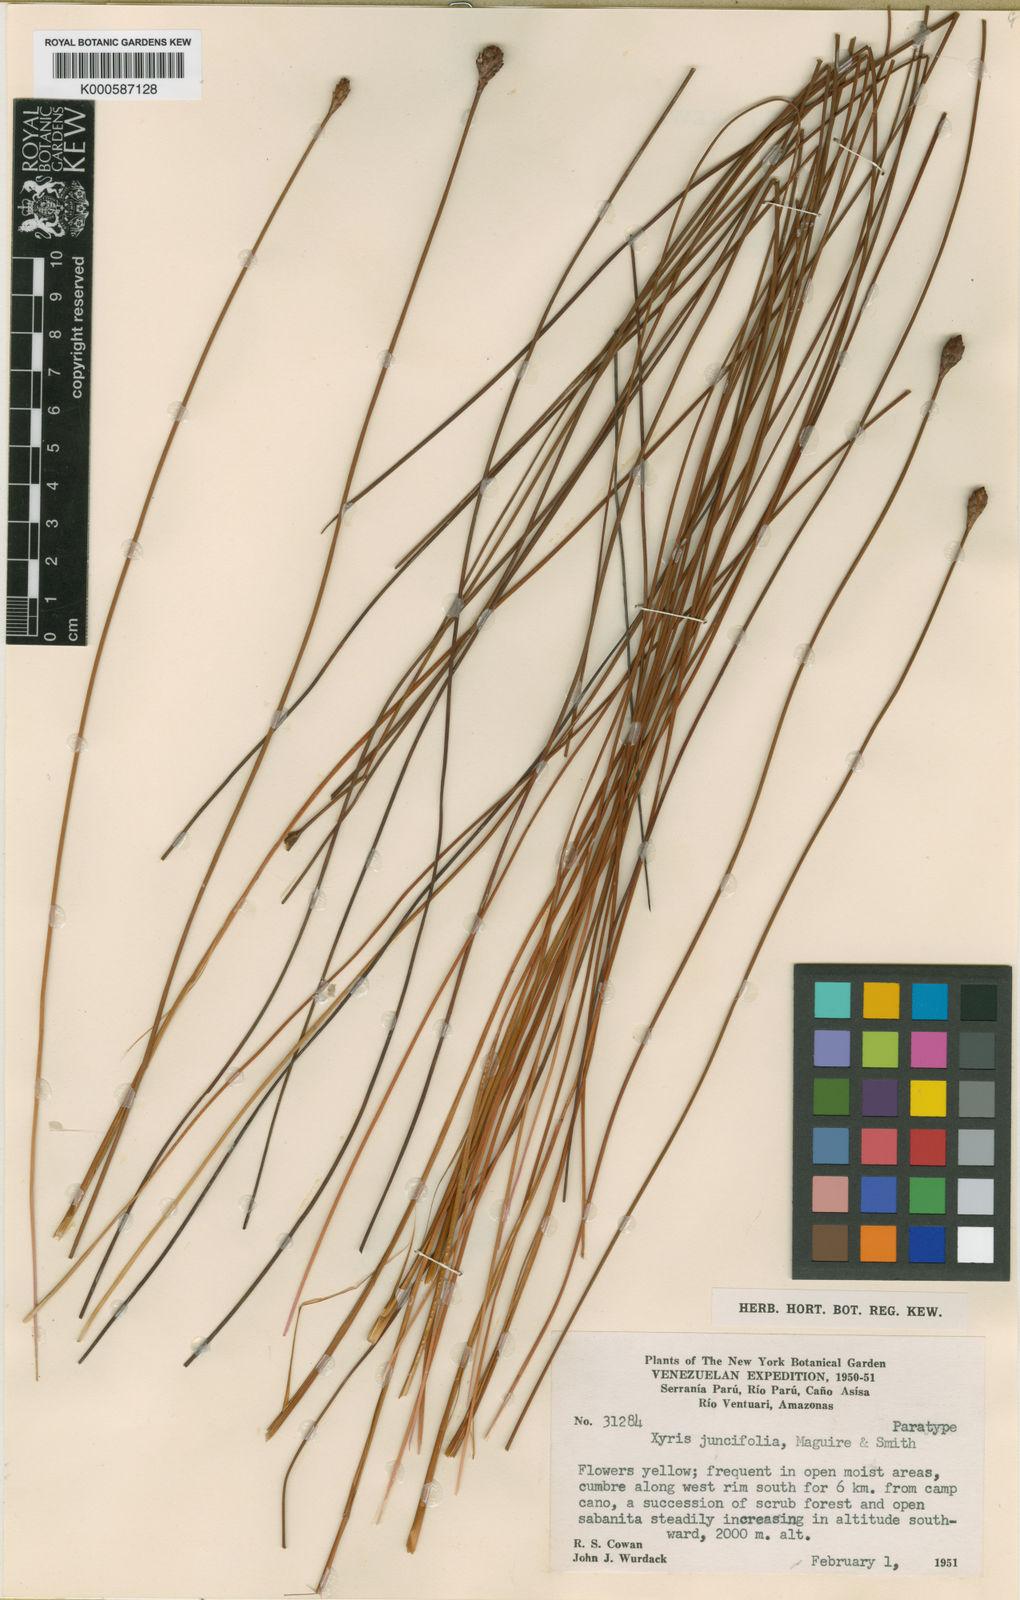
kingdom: Plantae
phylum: Tracheophyta
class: Liliopsida
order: Poales
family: Xyridaceae
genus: Xyris
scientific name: Xyris juncifolia
